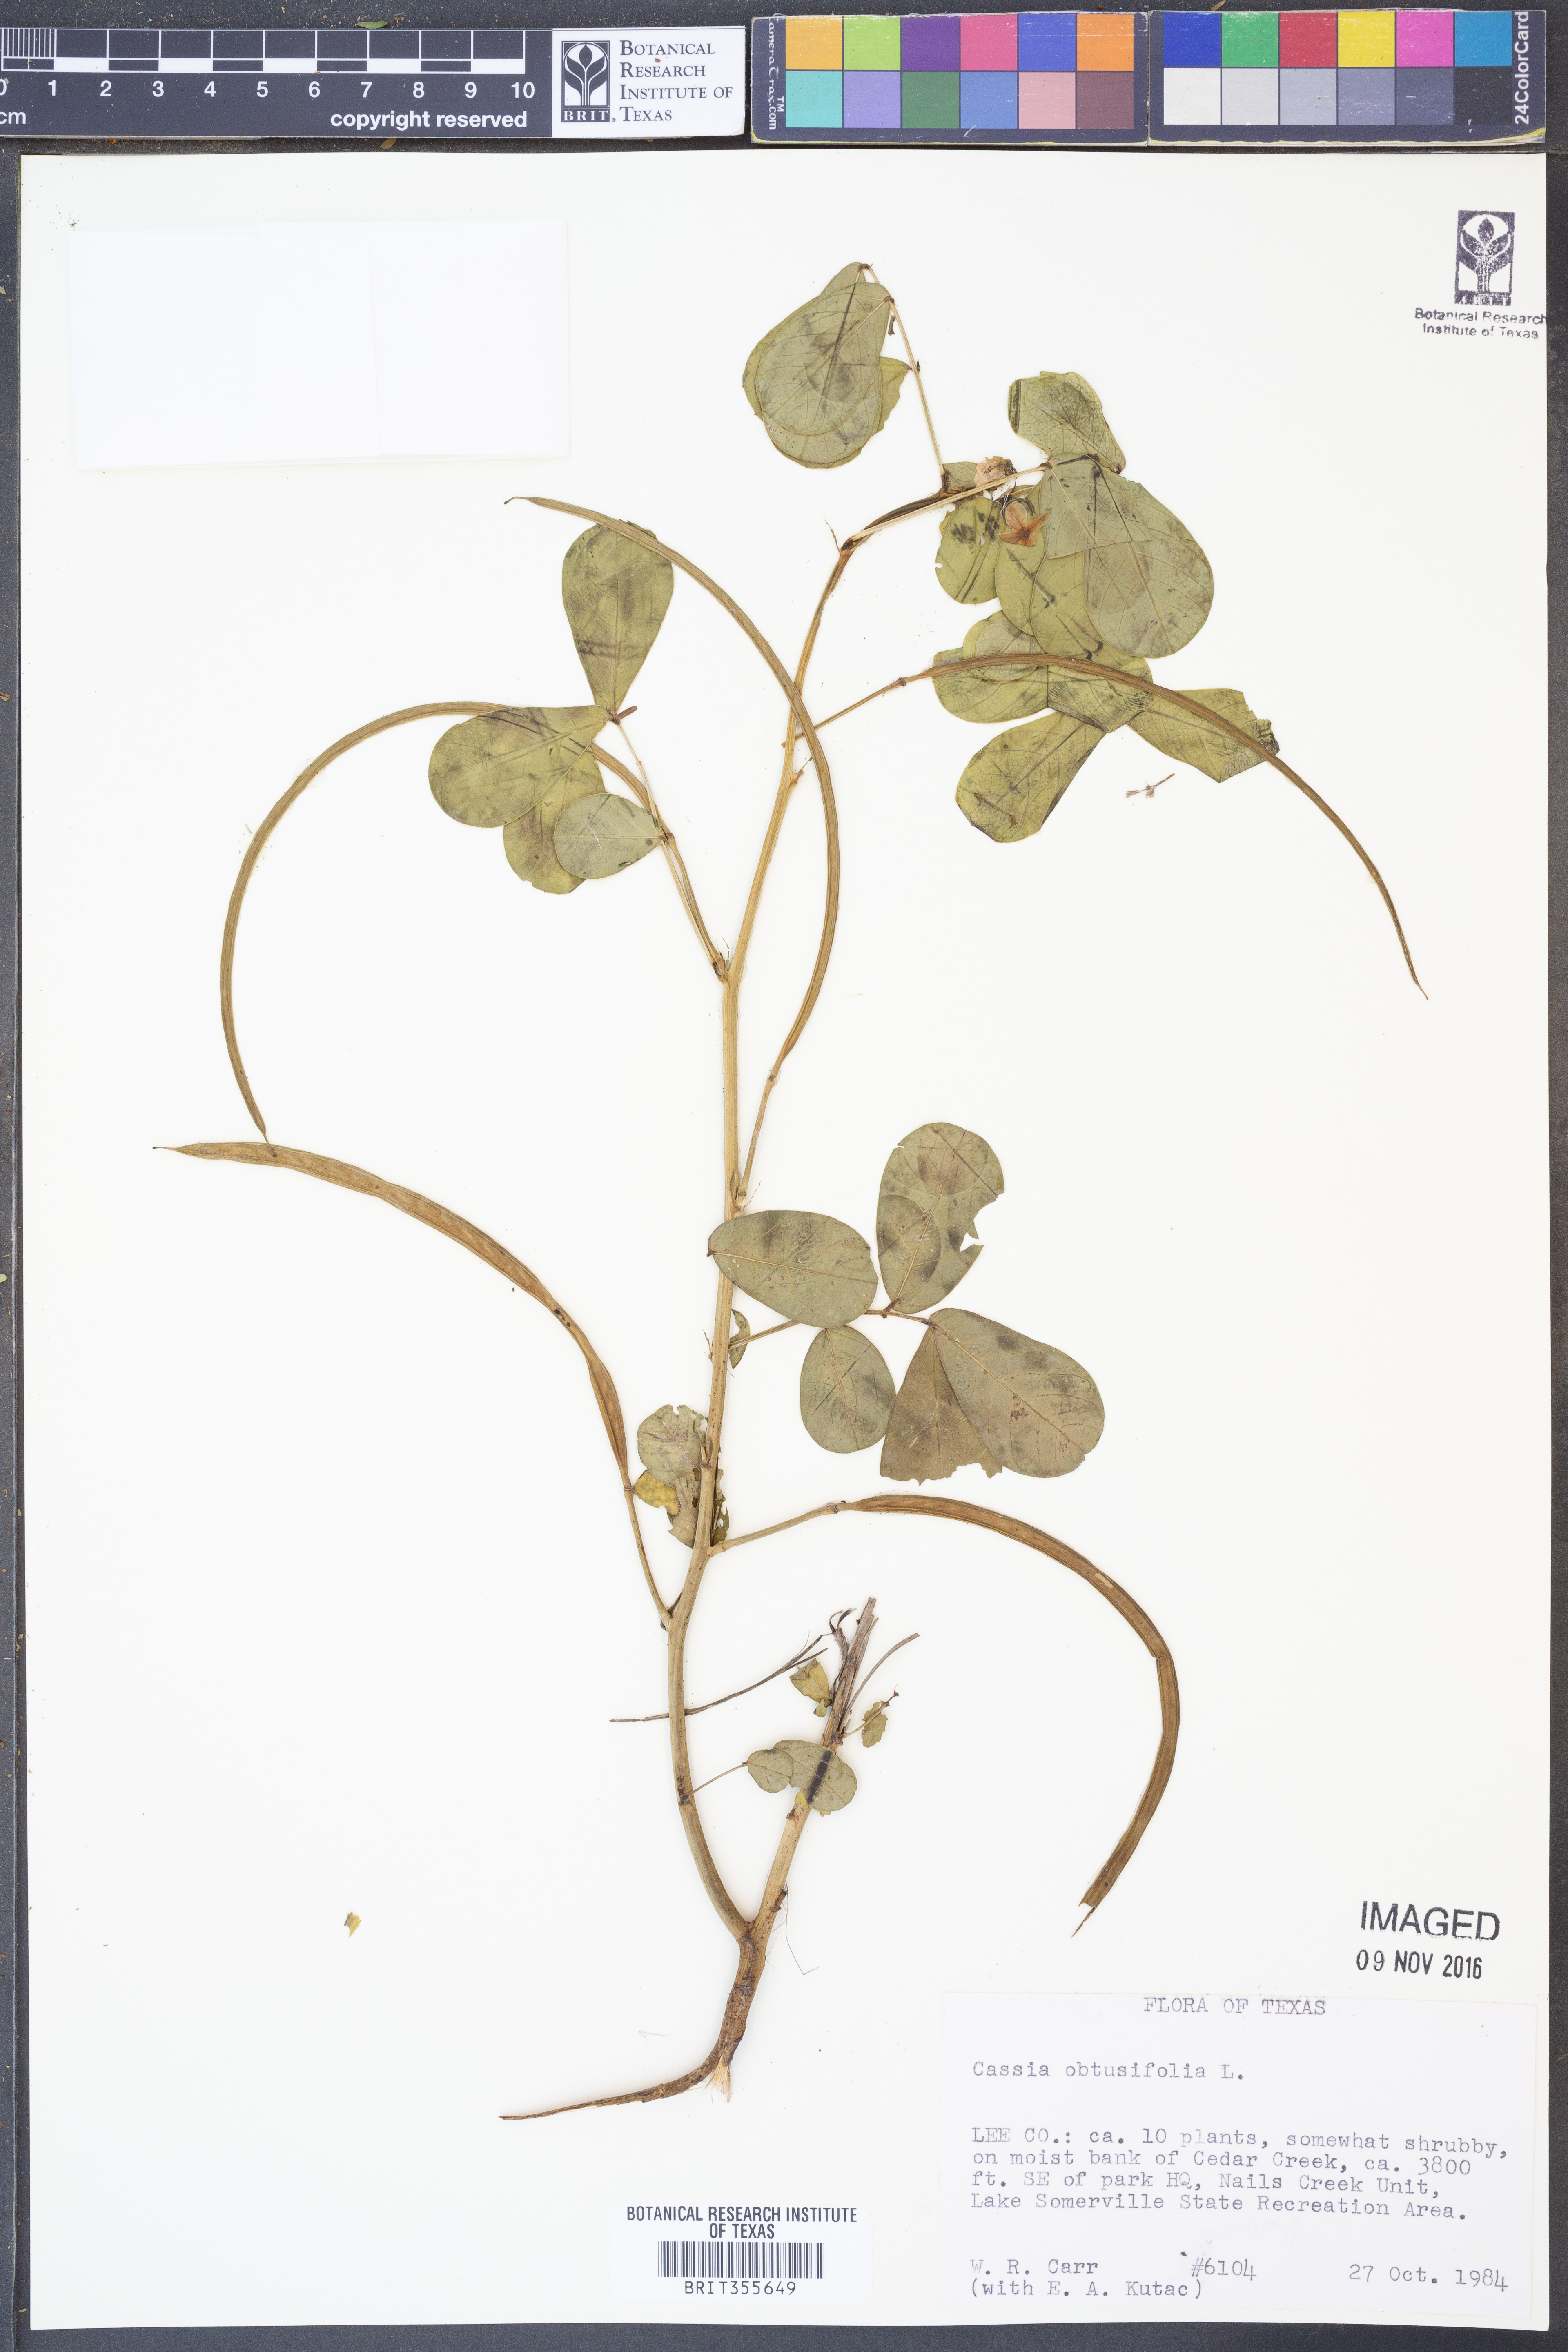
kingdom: Plantae
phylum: Tracheophyta
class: Magnoliopsida
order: Fabales
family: Fabaceae
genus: Senna
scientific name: Senna obtusifolia
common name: Java-bean
